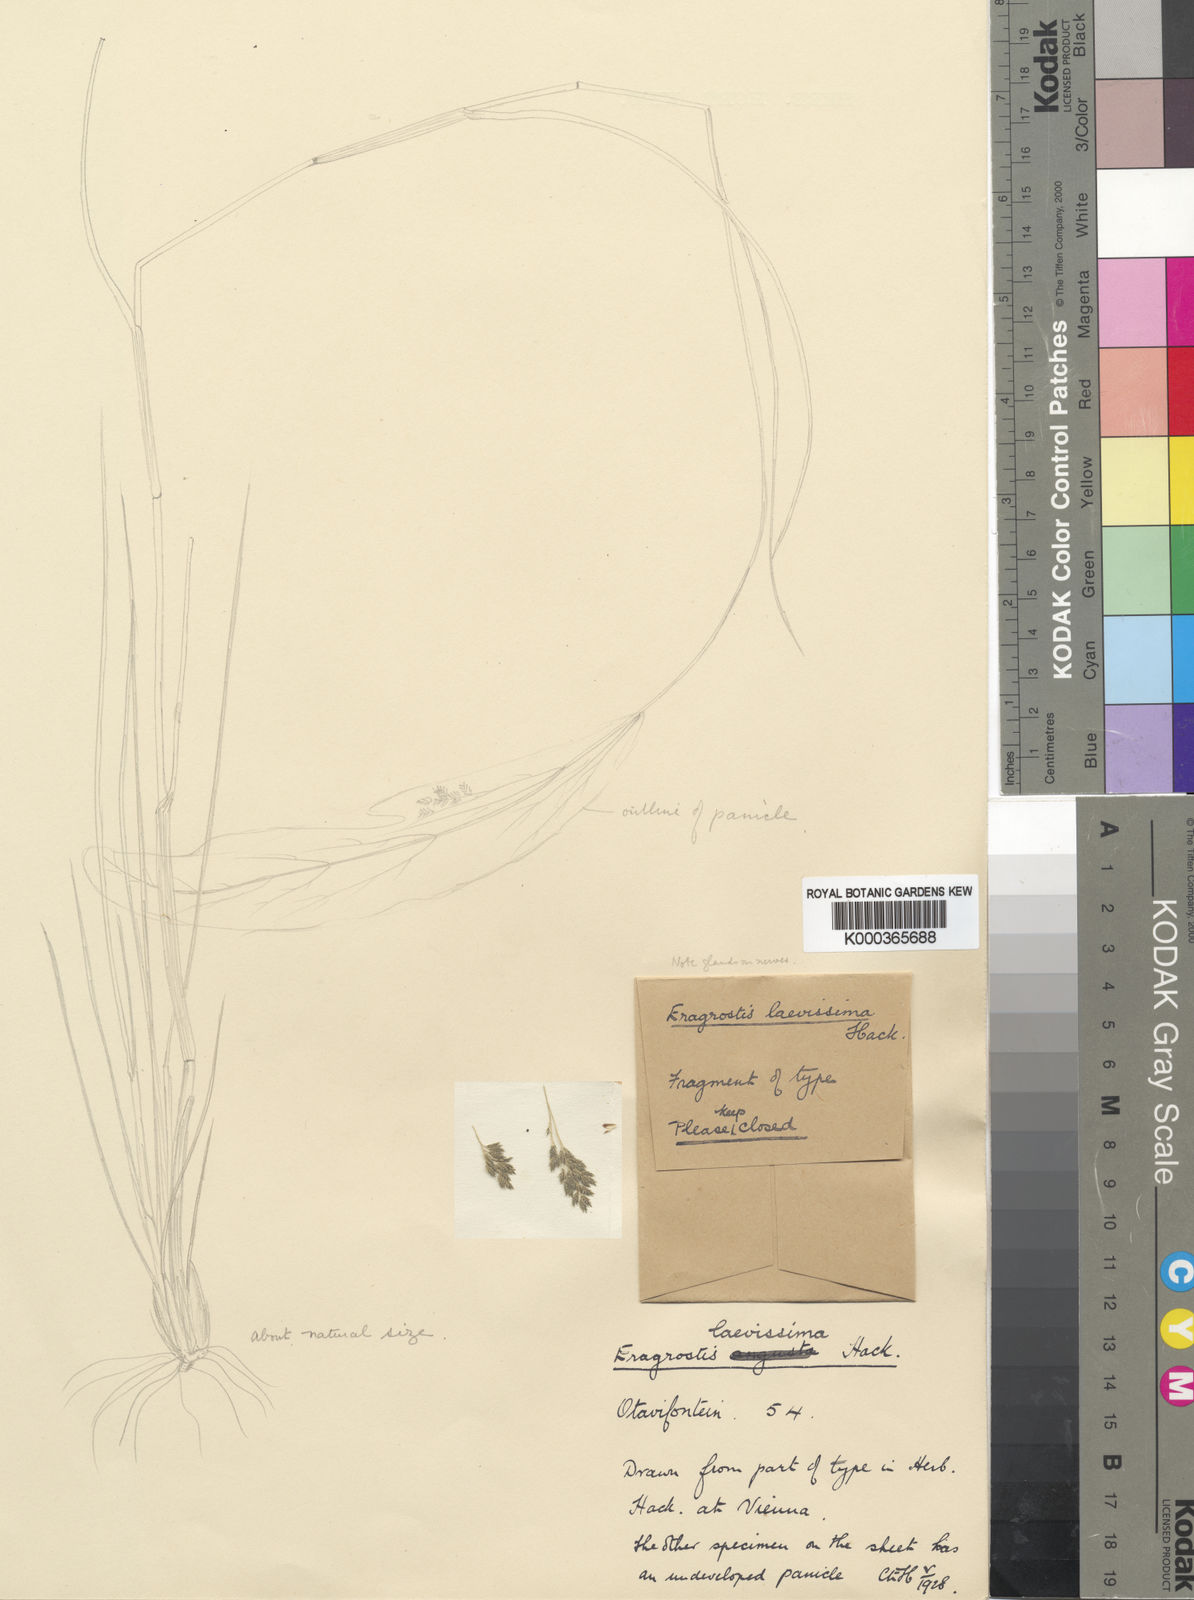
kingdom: Plantae
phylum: Tracheophyta
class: Liliopsida
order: Poales
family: Poaceae
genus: Eragrostis
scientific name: Eragrostis laevissima
